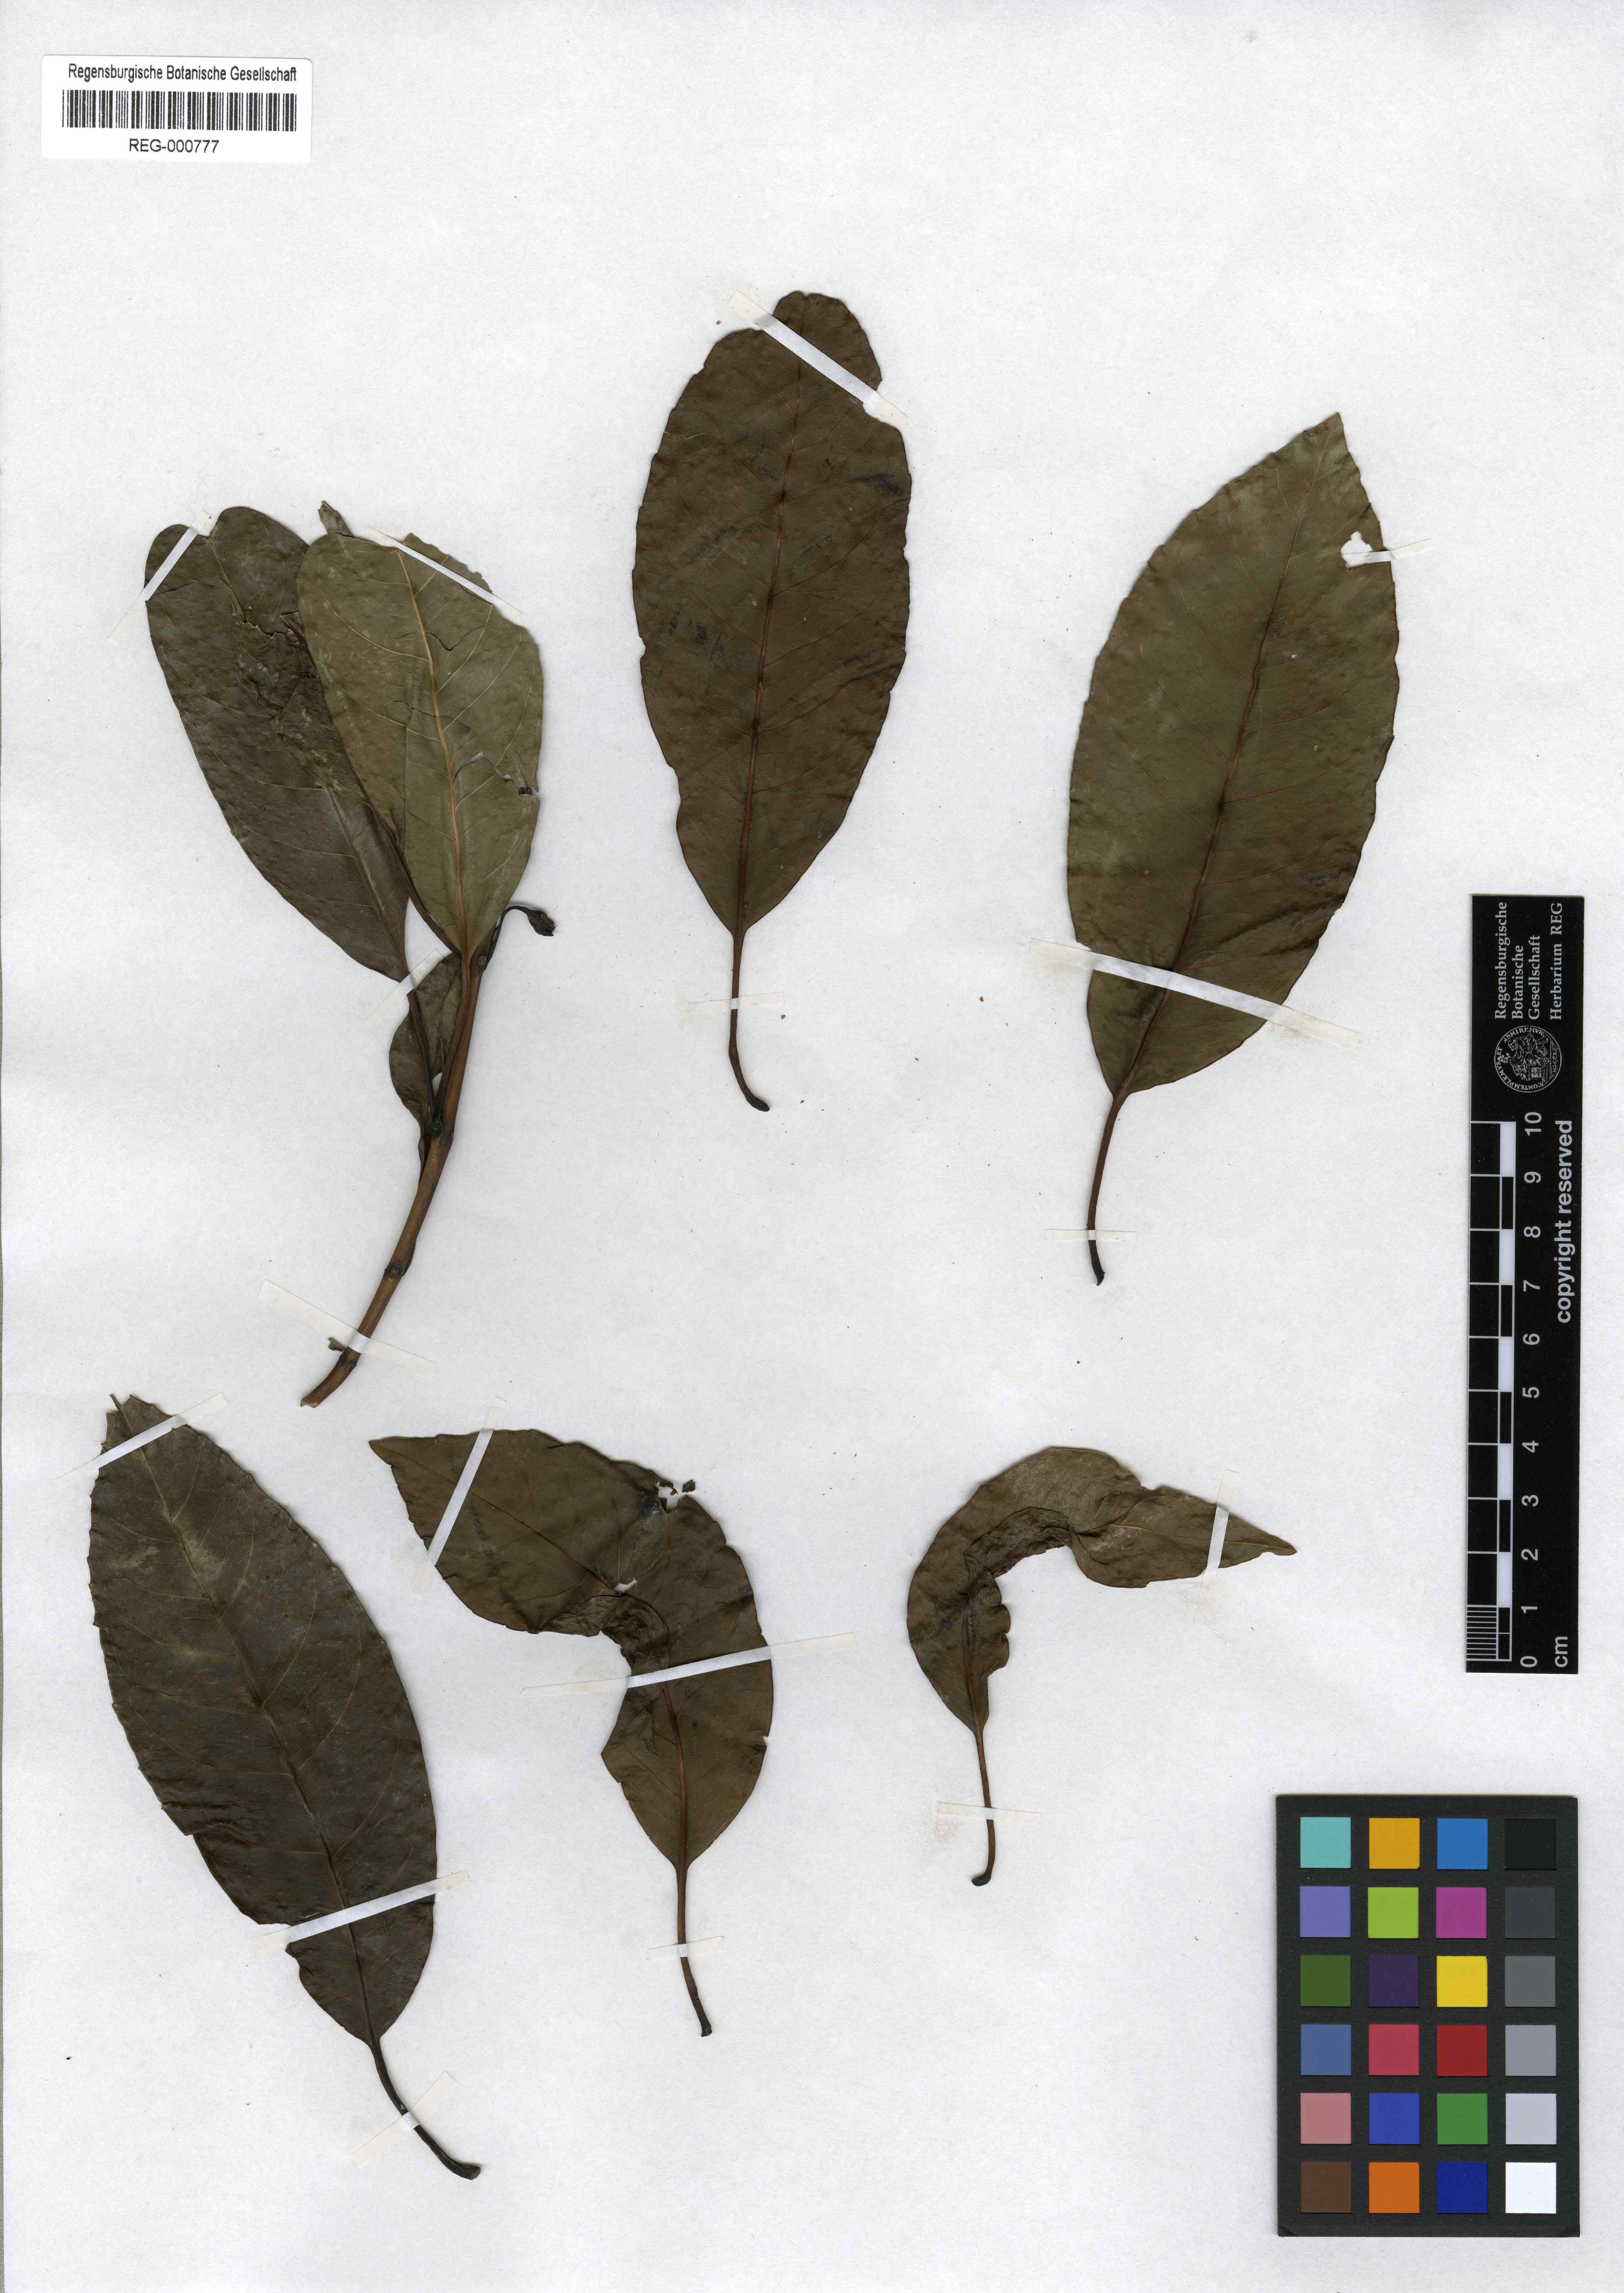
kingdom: Plantae
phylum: Tracheophyta
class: Magnoliopsida
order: Lamiales
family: Stilbaceae
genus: Nuxia
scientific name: Nuxia floribunda
